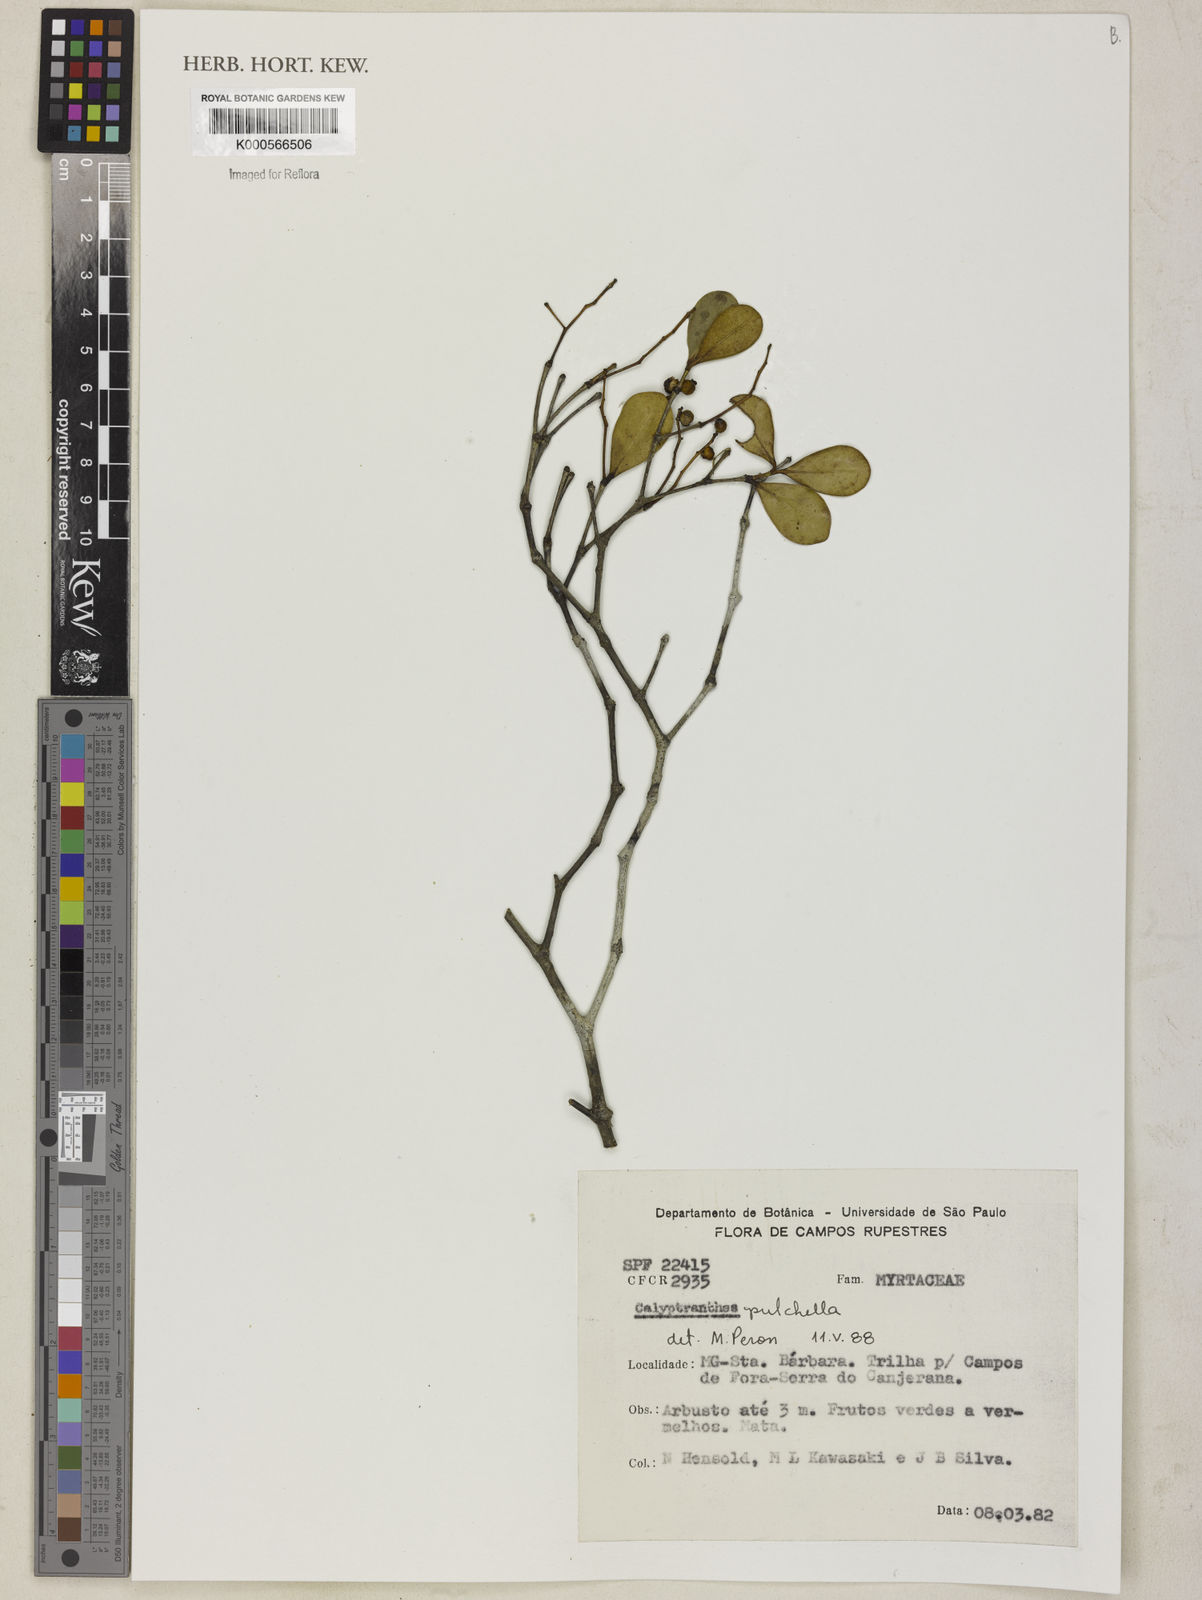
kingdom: Plantae
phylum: Tracheophyta
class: Magnoliopsida
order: Myrtales
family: Myrtaceae
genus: Myrcia
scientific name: Myrcia pulchella
